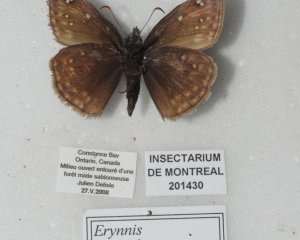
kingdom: Animalia
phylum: Arthropoda
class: Insecta
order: Lepidoptera
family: Hesperiidae
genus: Gesta
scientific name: Gesta
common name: Juvenal's Duskywing
